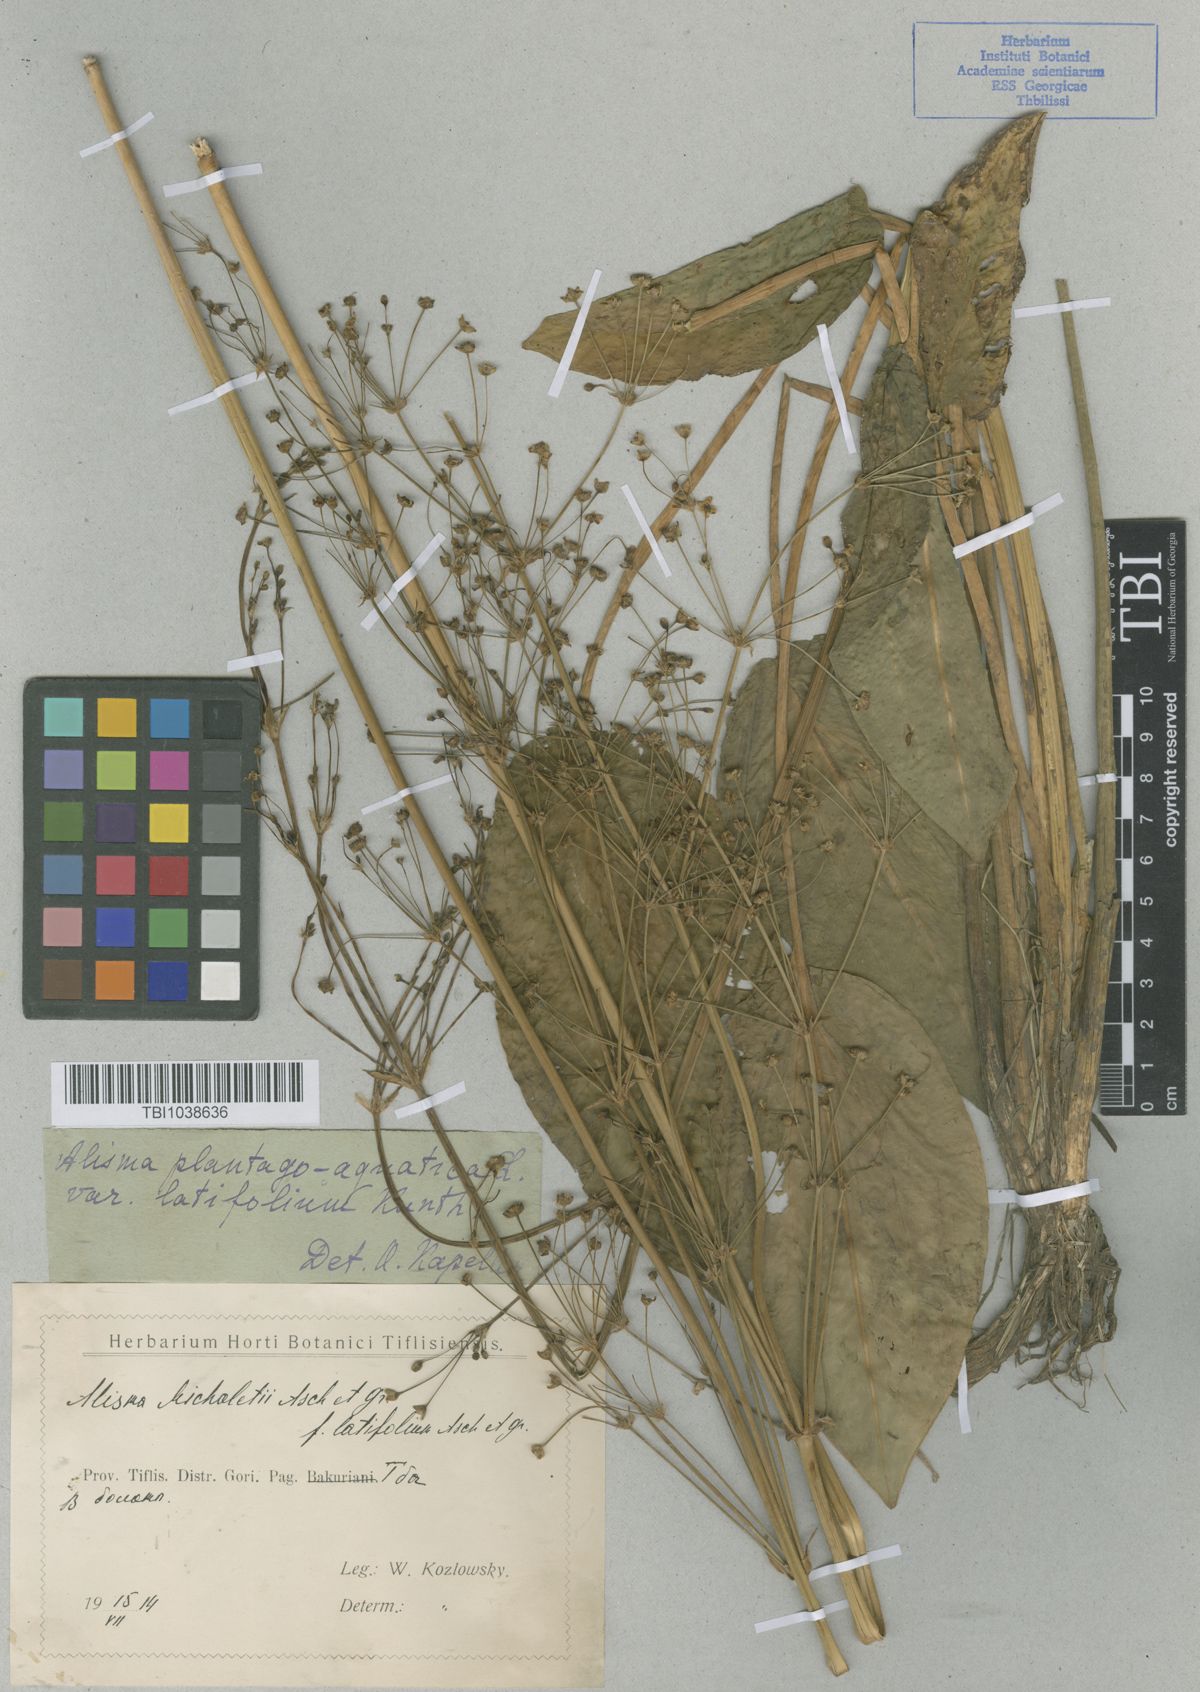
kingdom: Plantae
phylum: Tracheophyta
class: Liliopsida
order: Alismatales
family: Alismataceae
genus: Alisma
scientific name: Alisma plantago-aquatica
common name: Water-plantain
